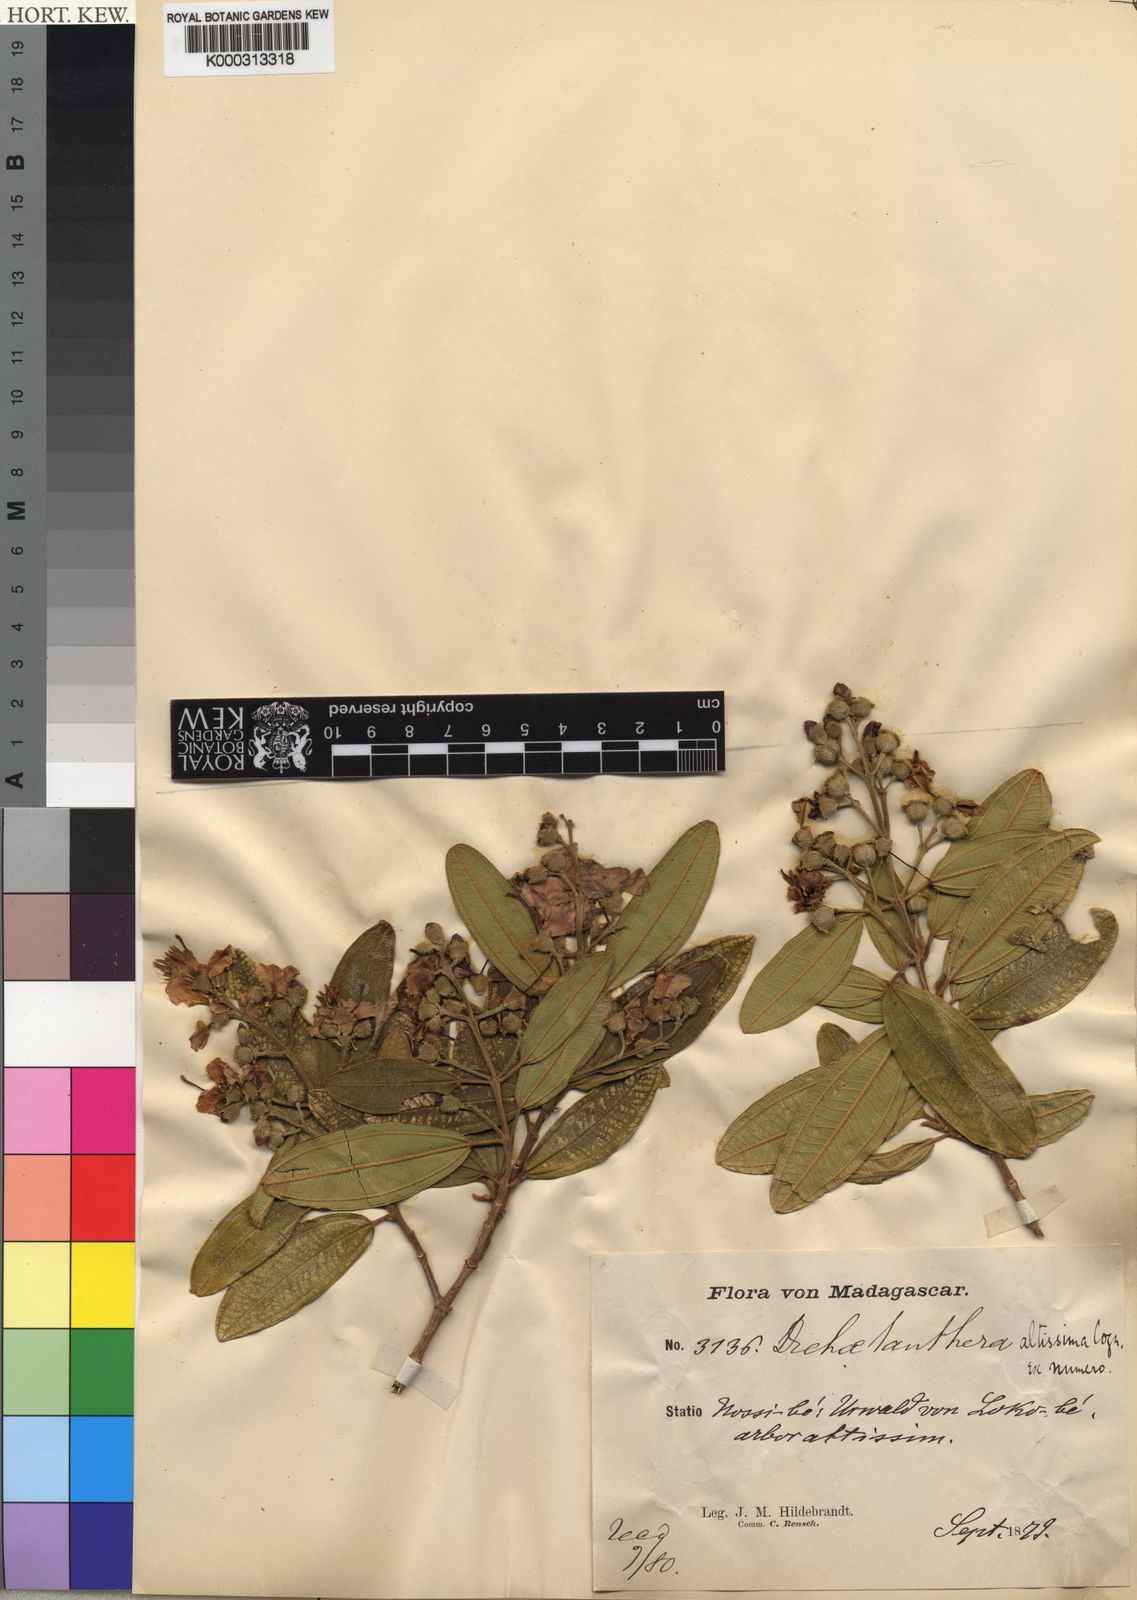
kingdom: Plantae
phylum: Tracheophyta
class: Magnoliopsida
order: Myrtales
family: Melastomataceae
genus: Dichaetanthera
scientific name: Dichaetanthera altissima
